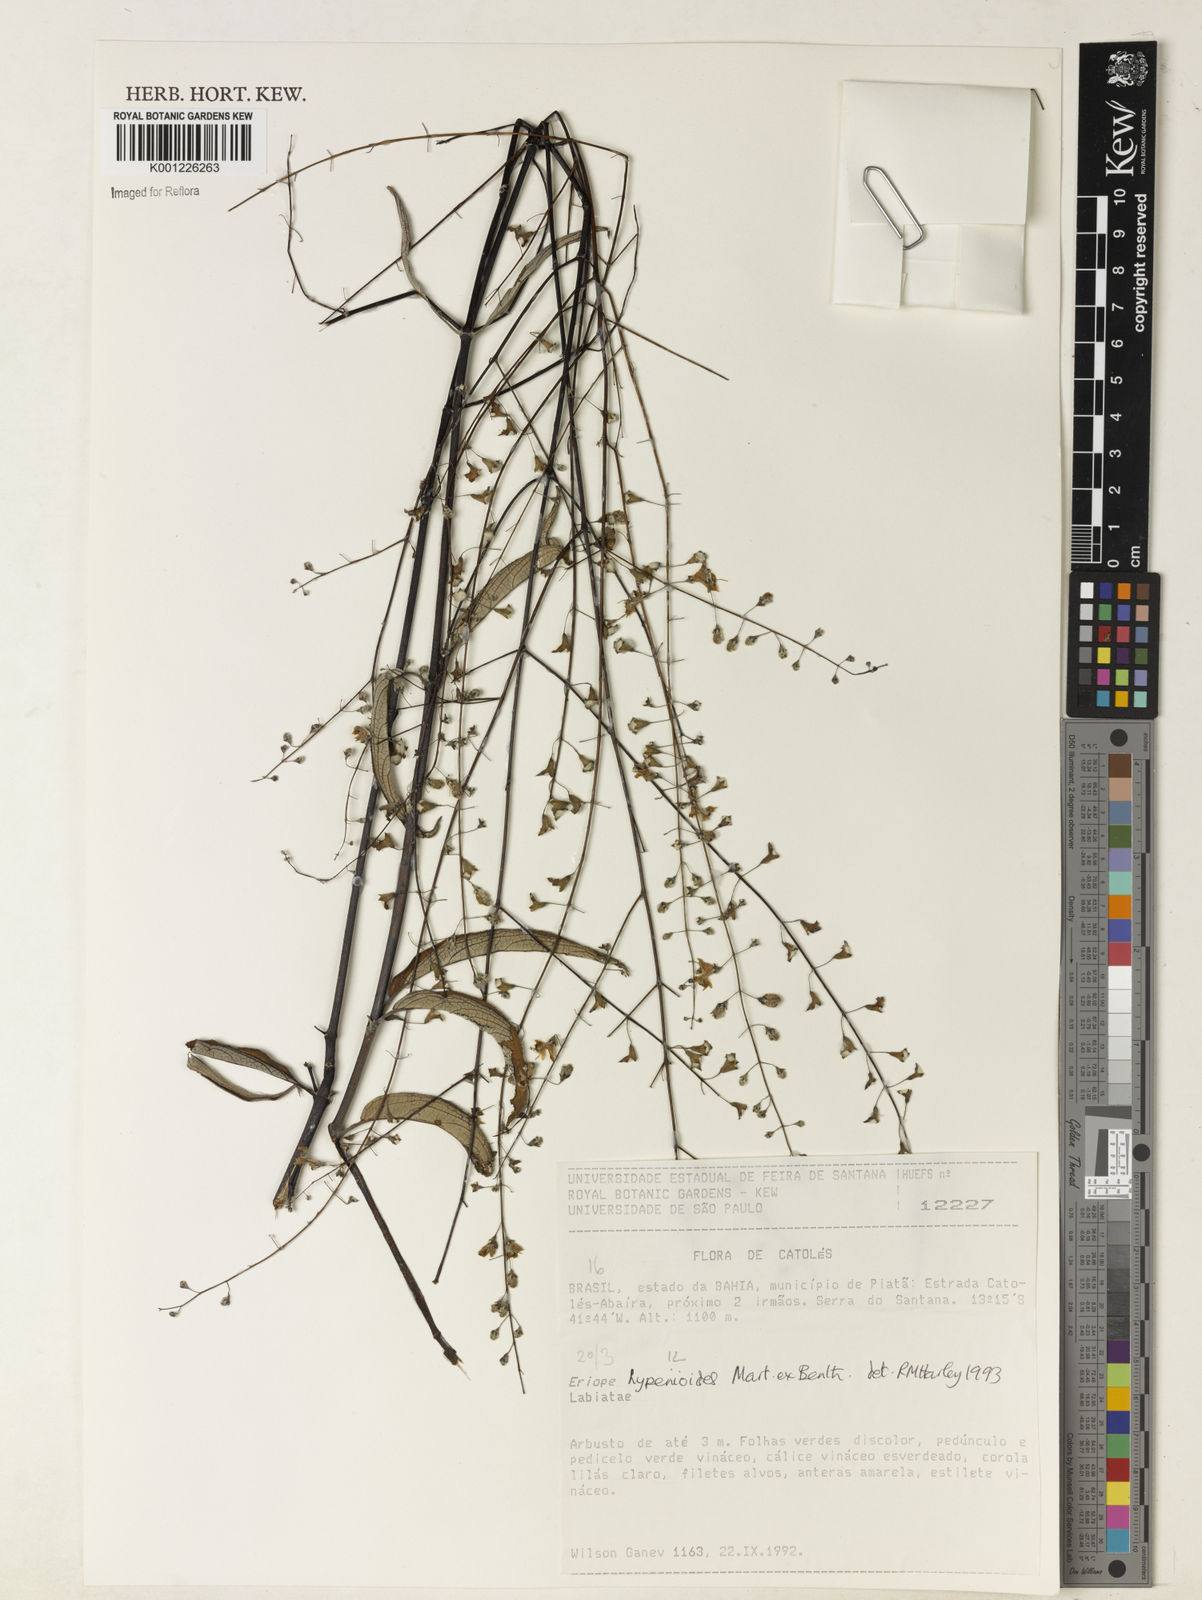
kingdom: Plantae
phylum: Tracheophyta
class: Magnoliopsida
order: Lamiales
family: Lamiaceae
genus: Eriope
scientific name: Eriope hypenioides
